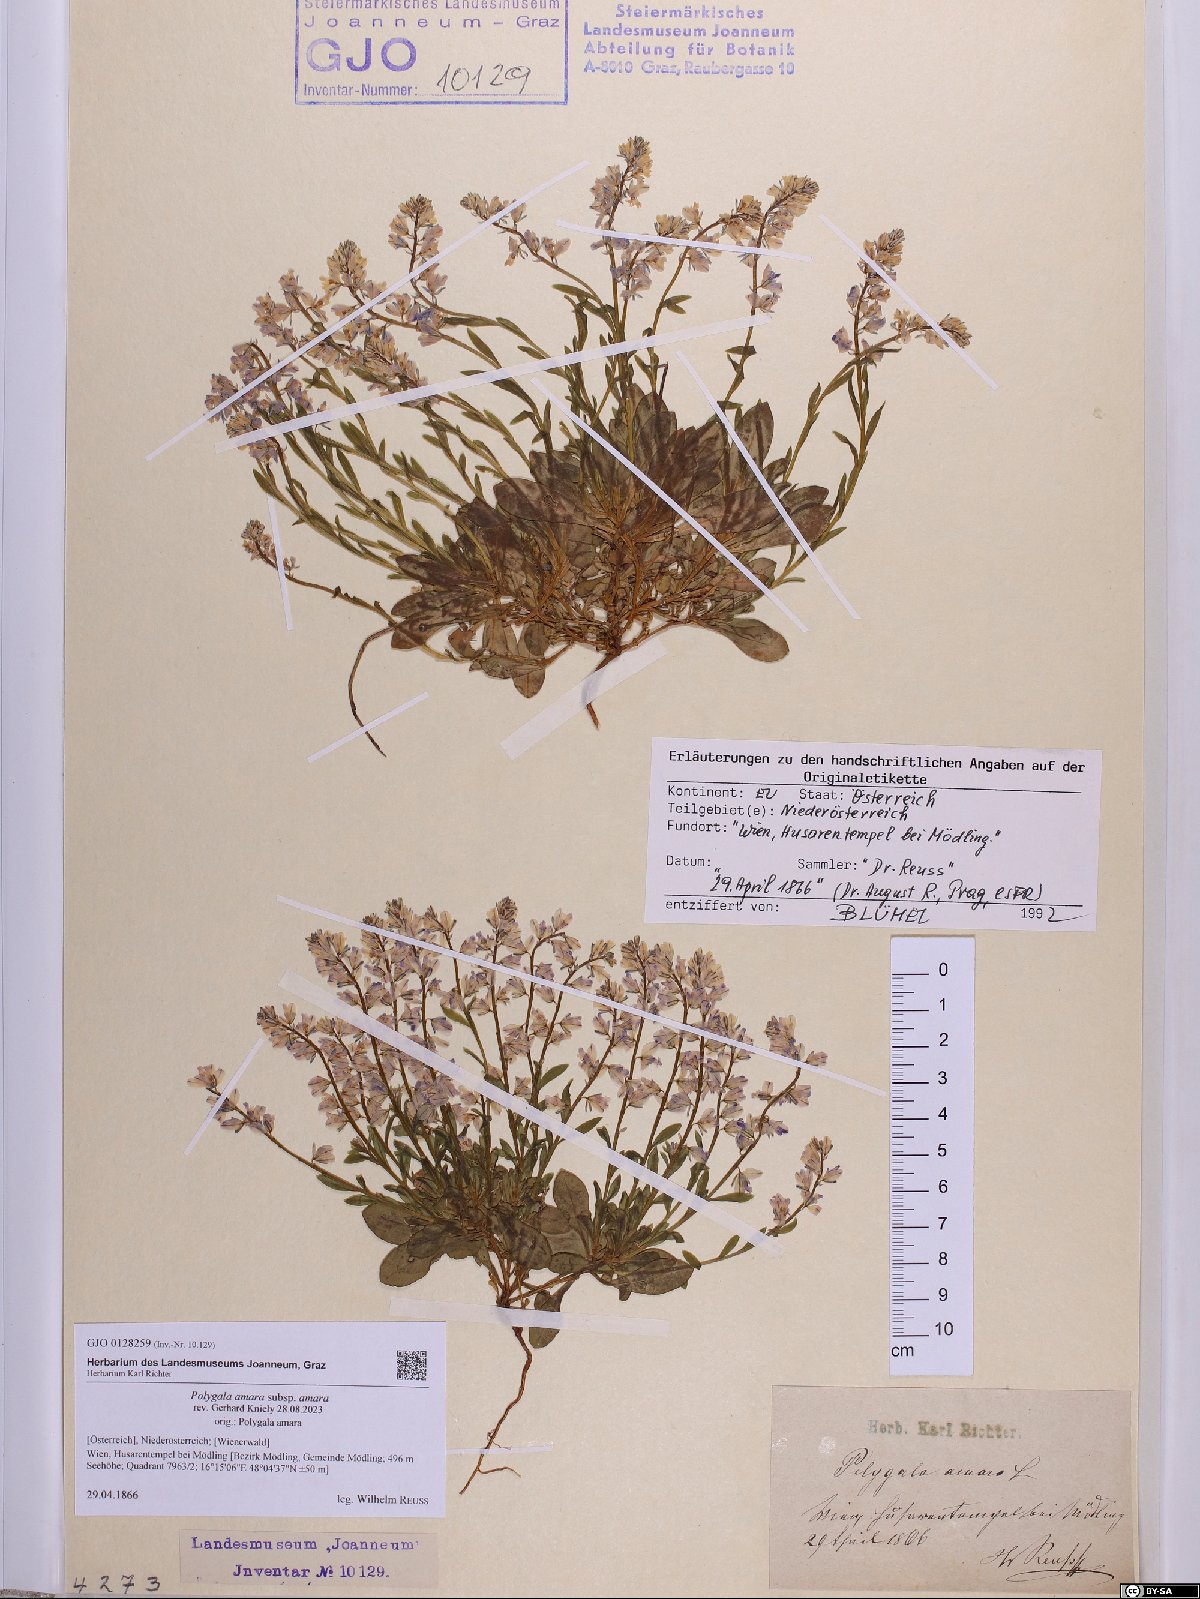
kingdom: Plantae
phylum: Tracheophyta
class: Magnoliopsida
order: Fabales
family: Polygalaceae
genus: Polygala
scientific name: Polygala amara
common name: Milkwort
